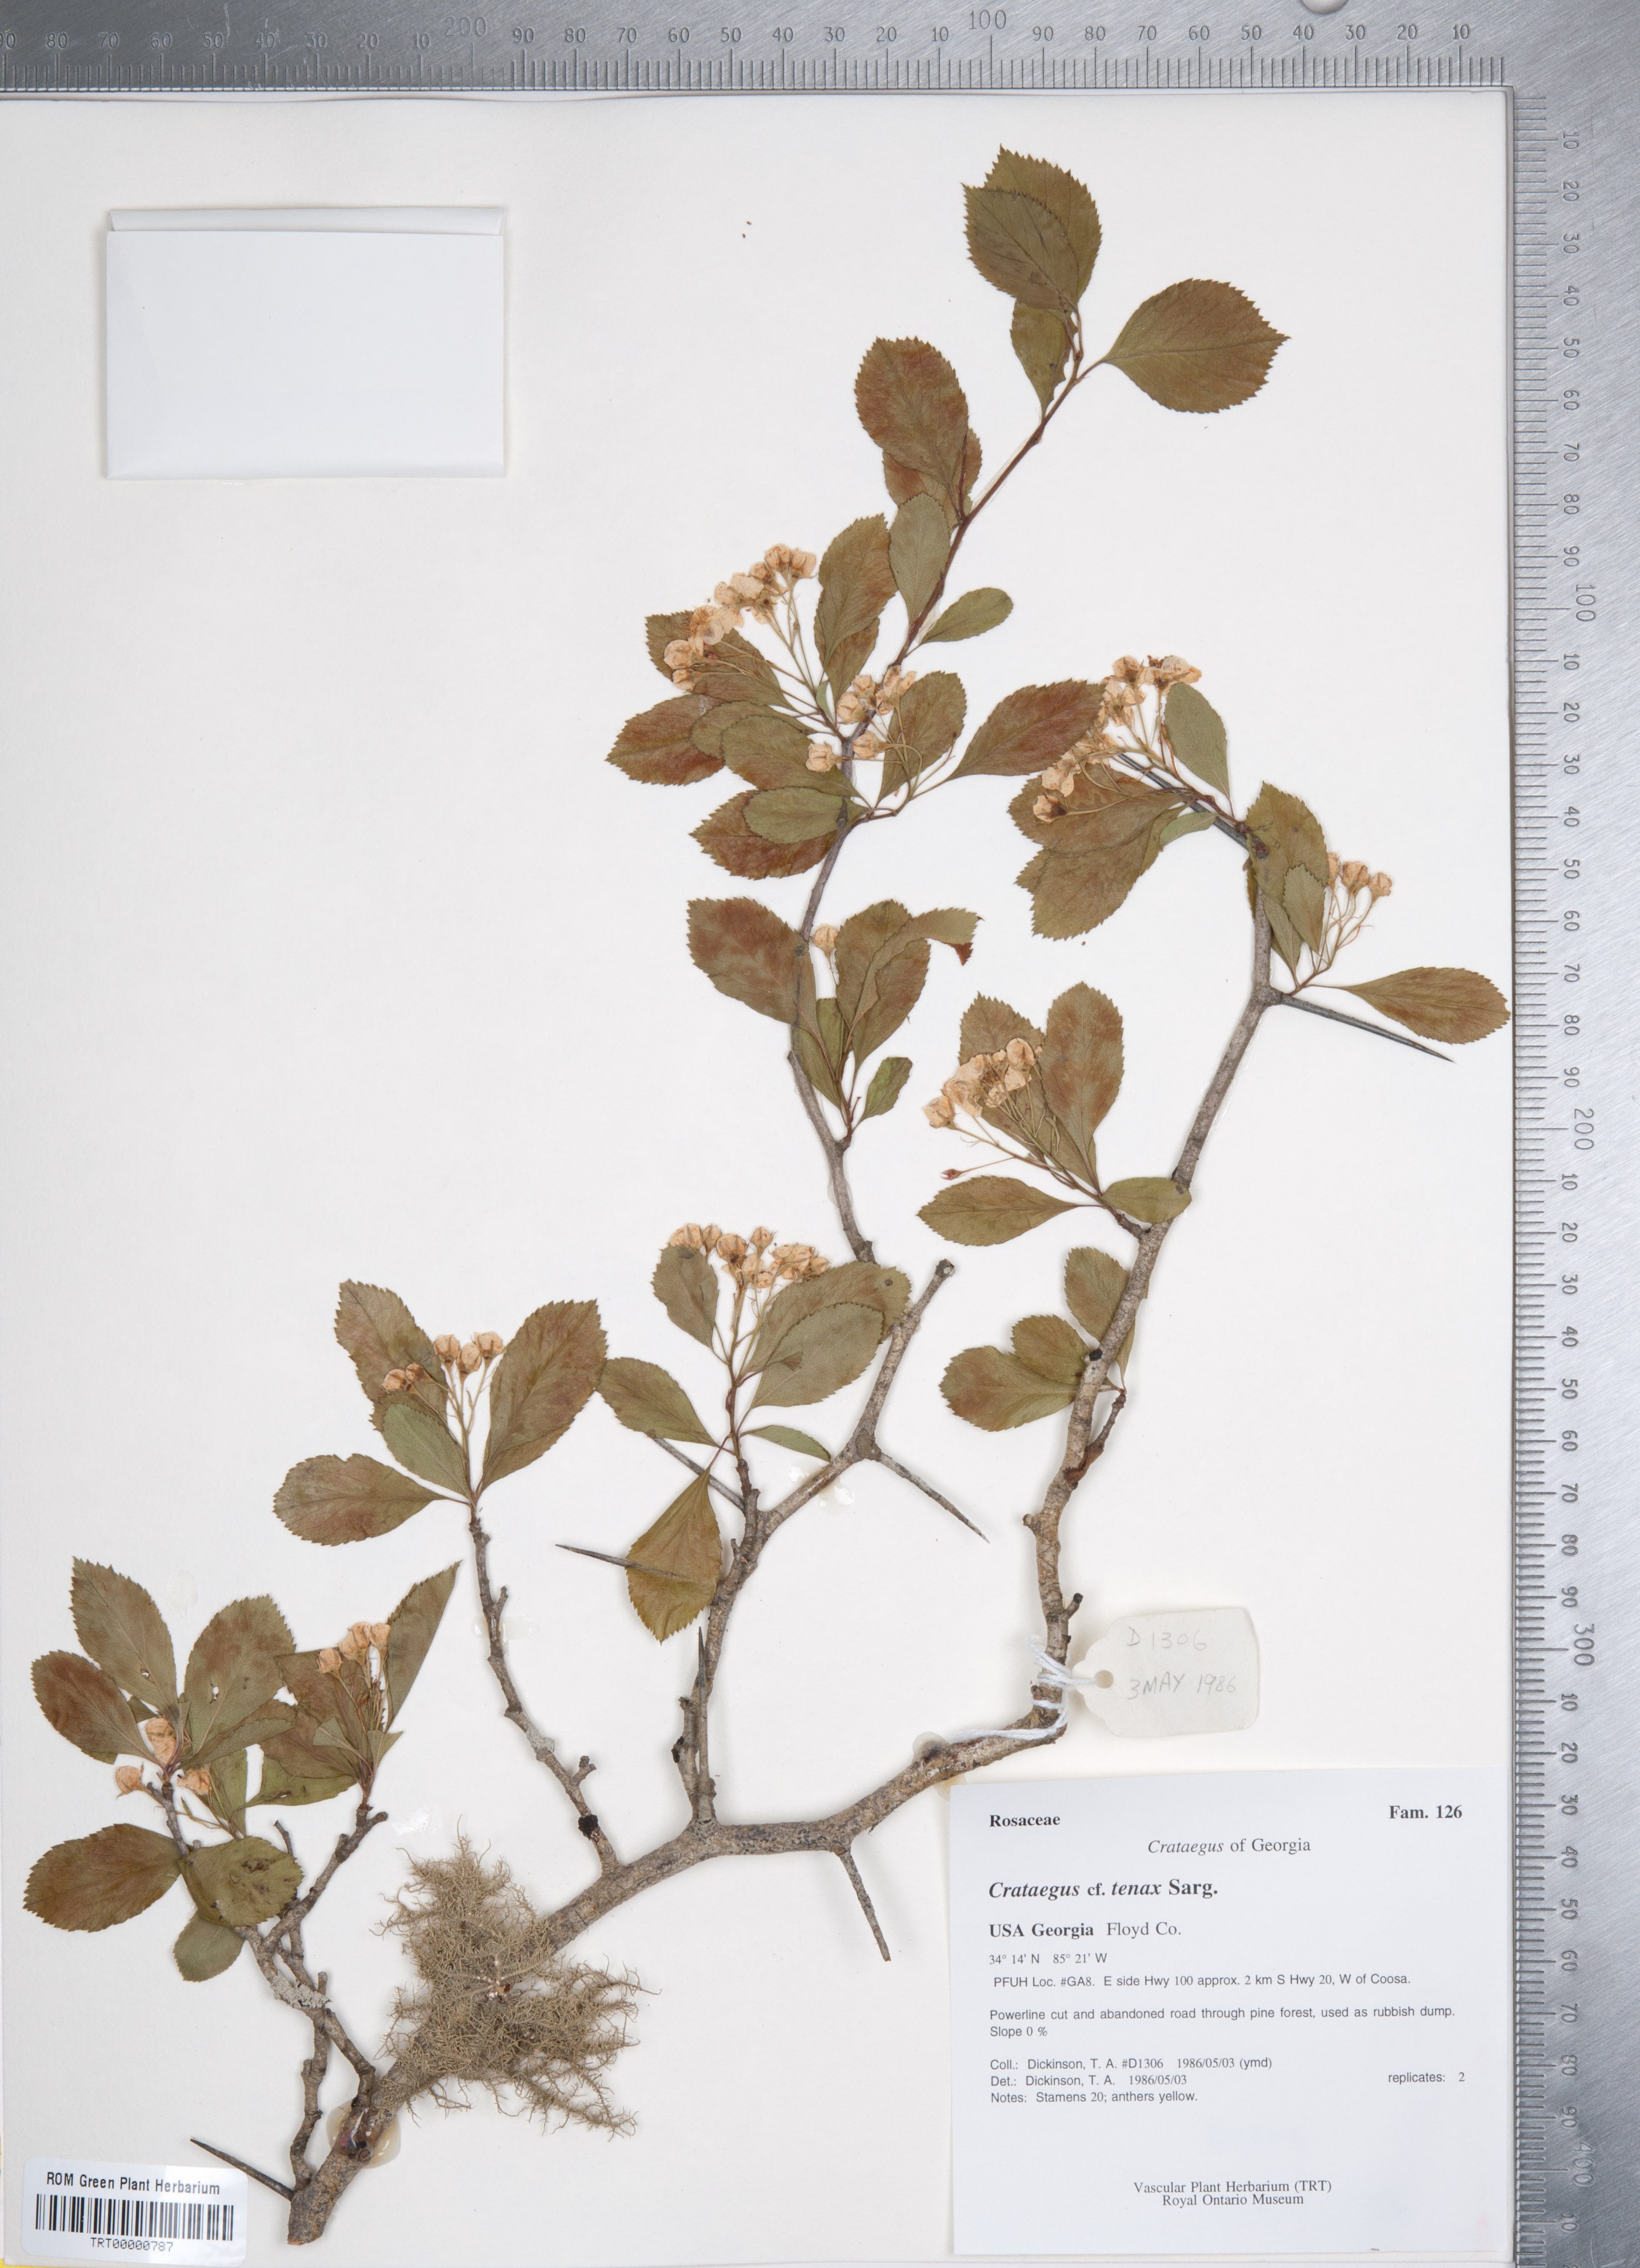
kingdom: Plantae
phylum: Tracheophyta
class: Magnoliopsida
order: Rosales
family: Rosaceae
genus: Crataegus
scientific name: Crataegus crus-galli
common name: Cockspurthorn
